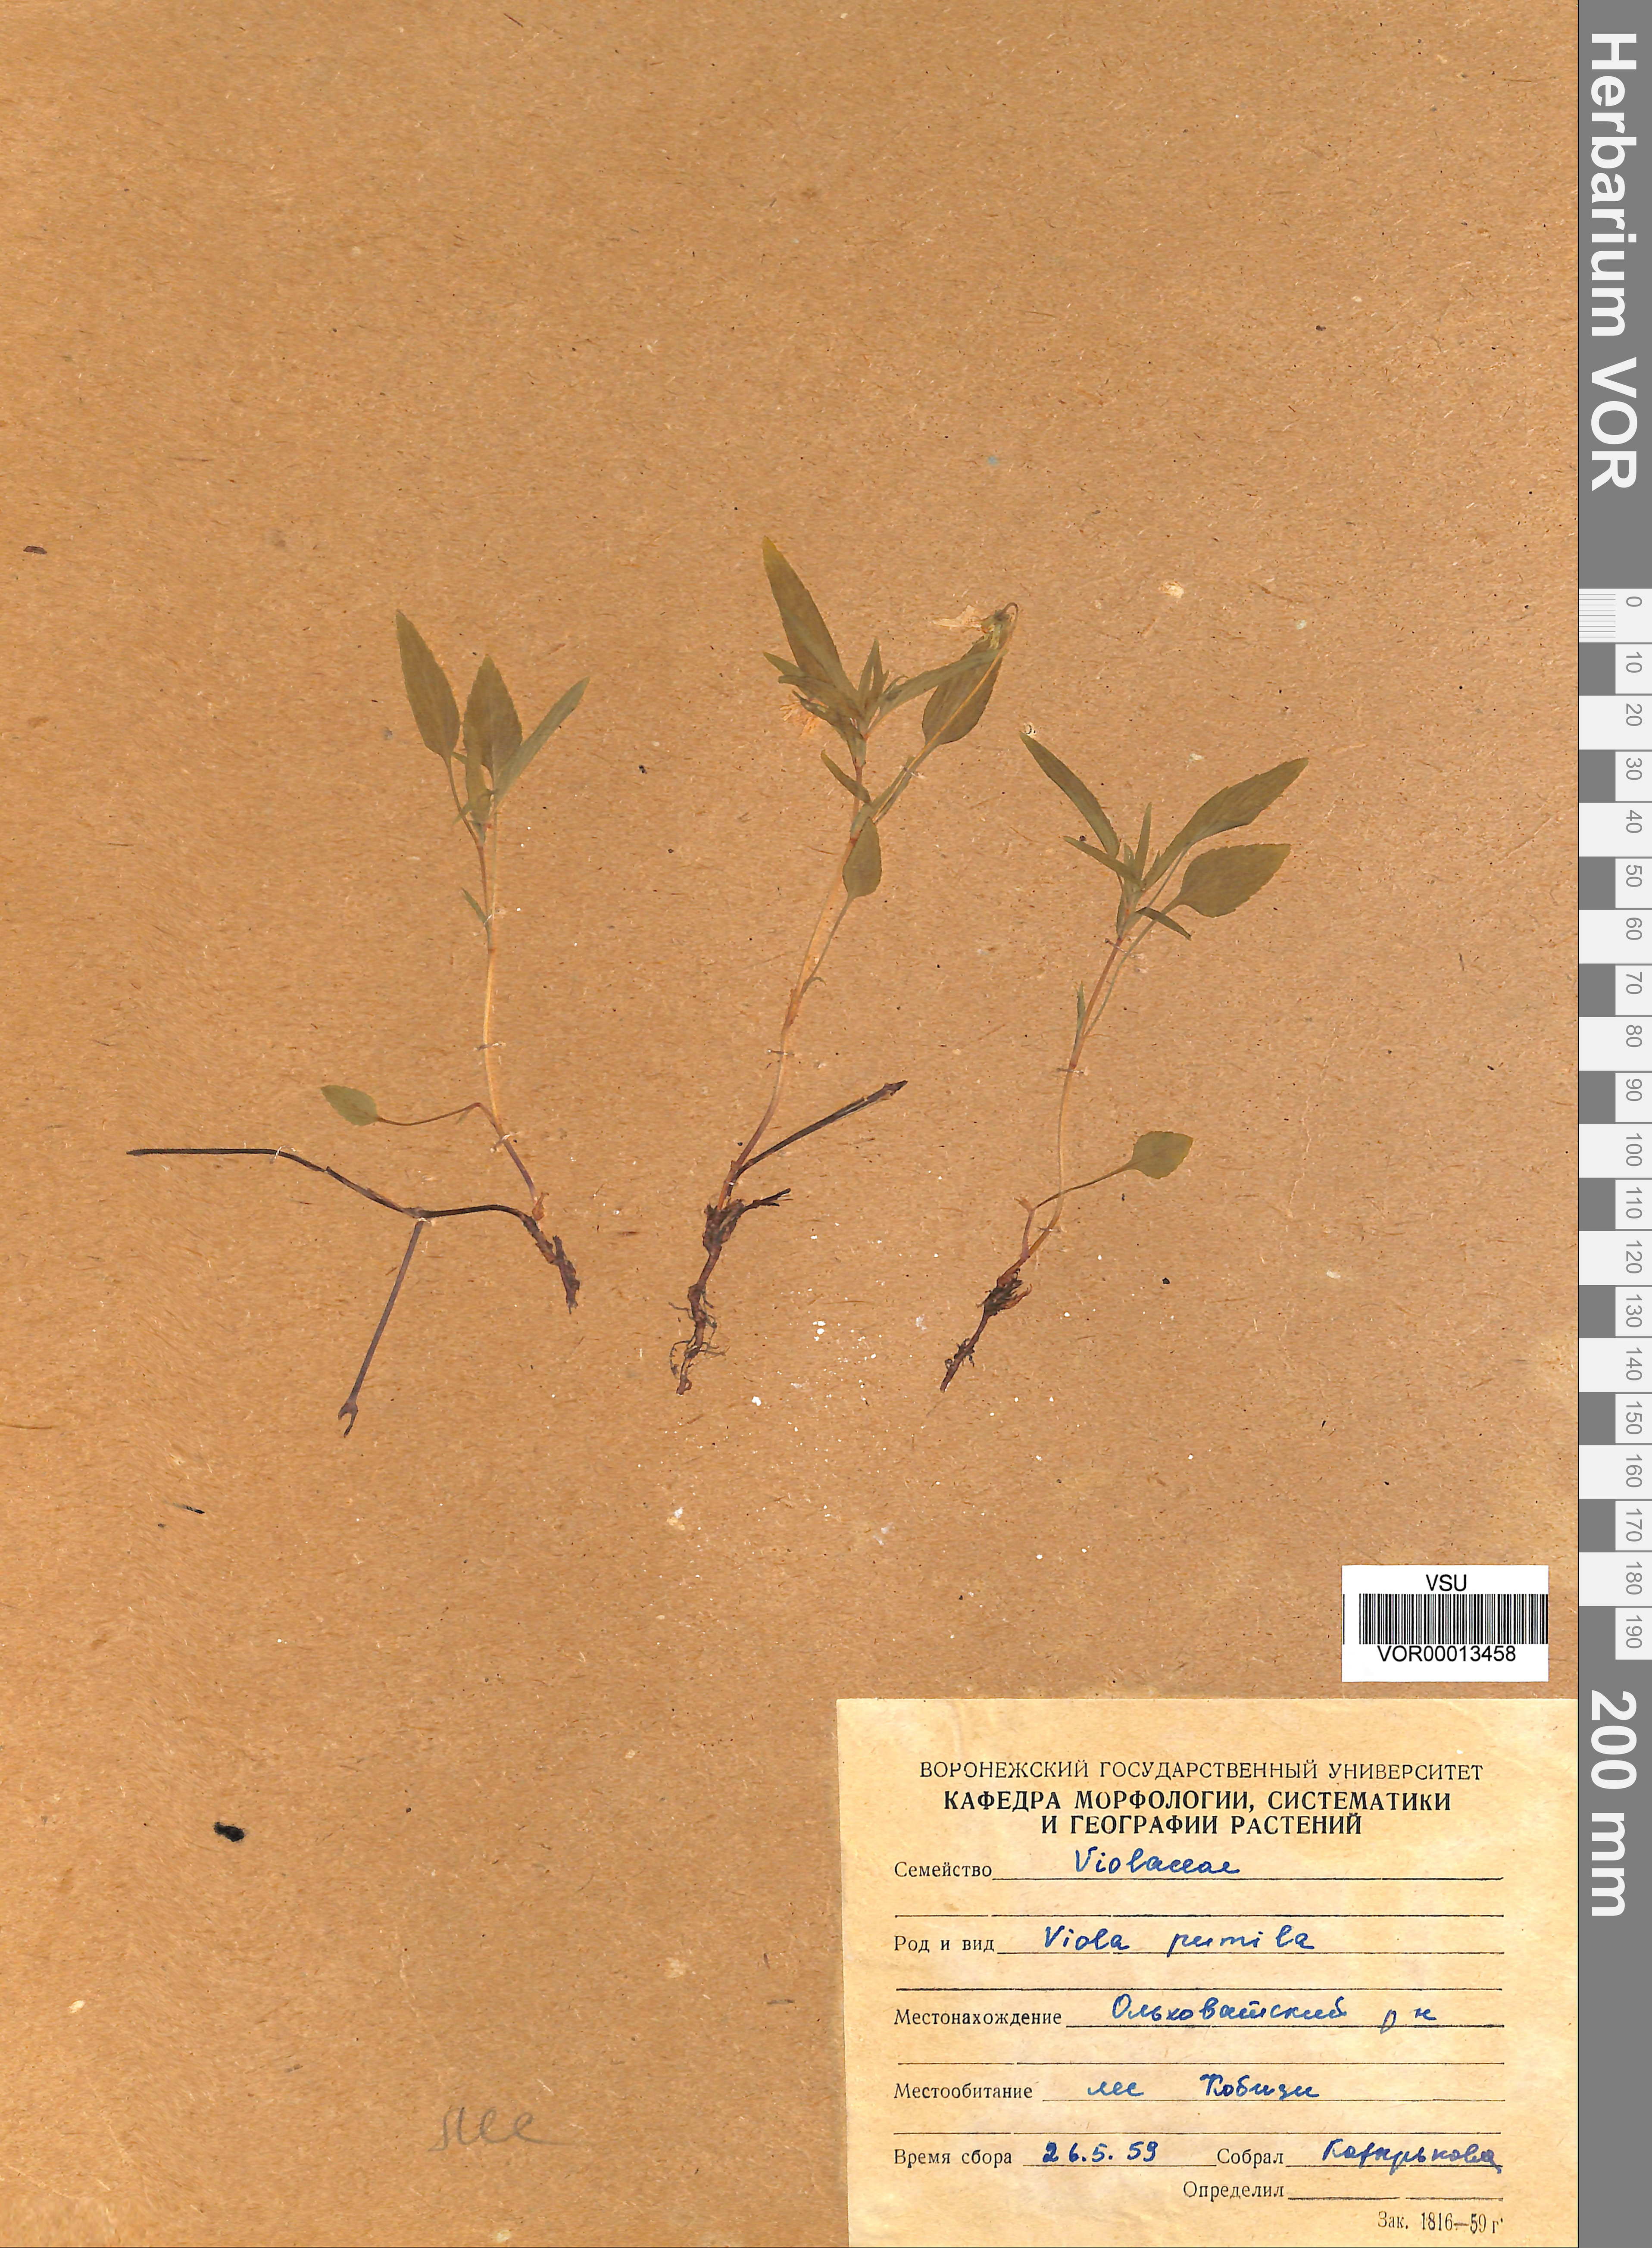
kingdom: Plantae
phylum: Tracheophyta
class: Magnoliopsida
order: Malpighiales
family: Violaceae
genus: Viola
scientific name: Viola pumila
